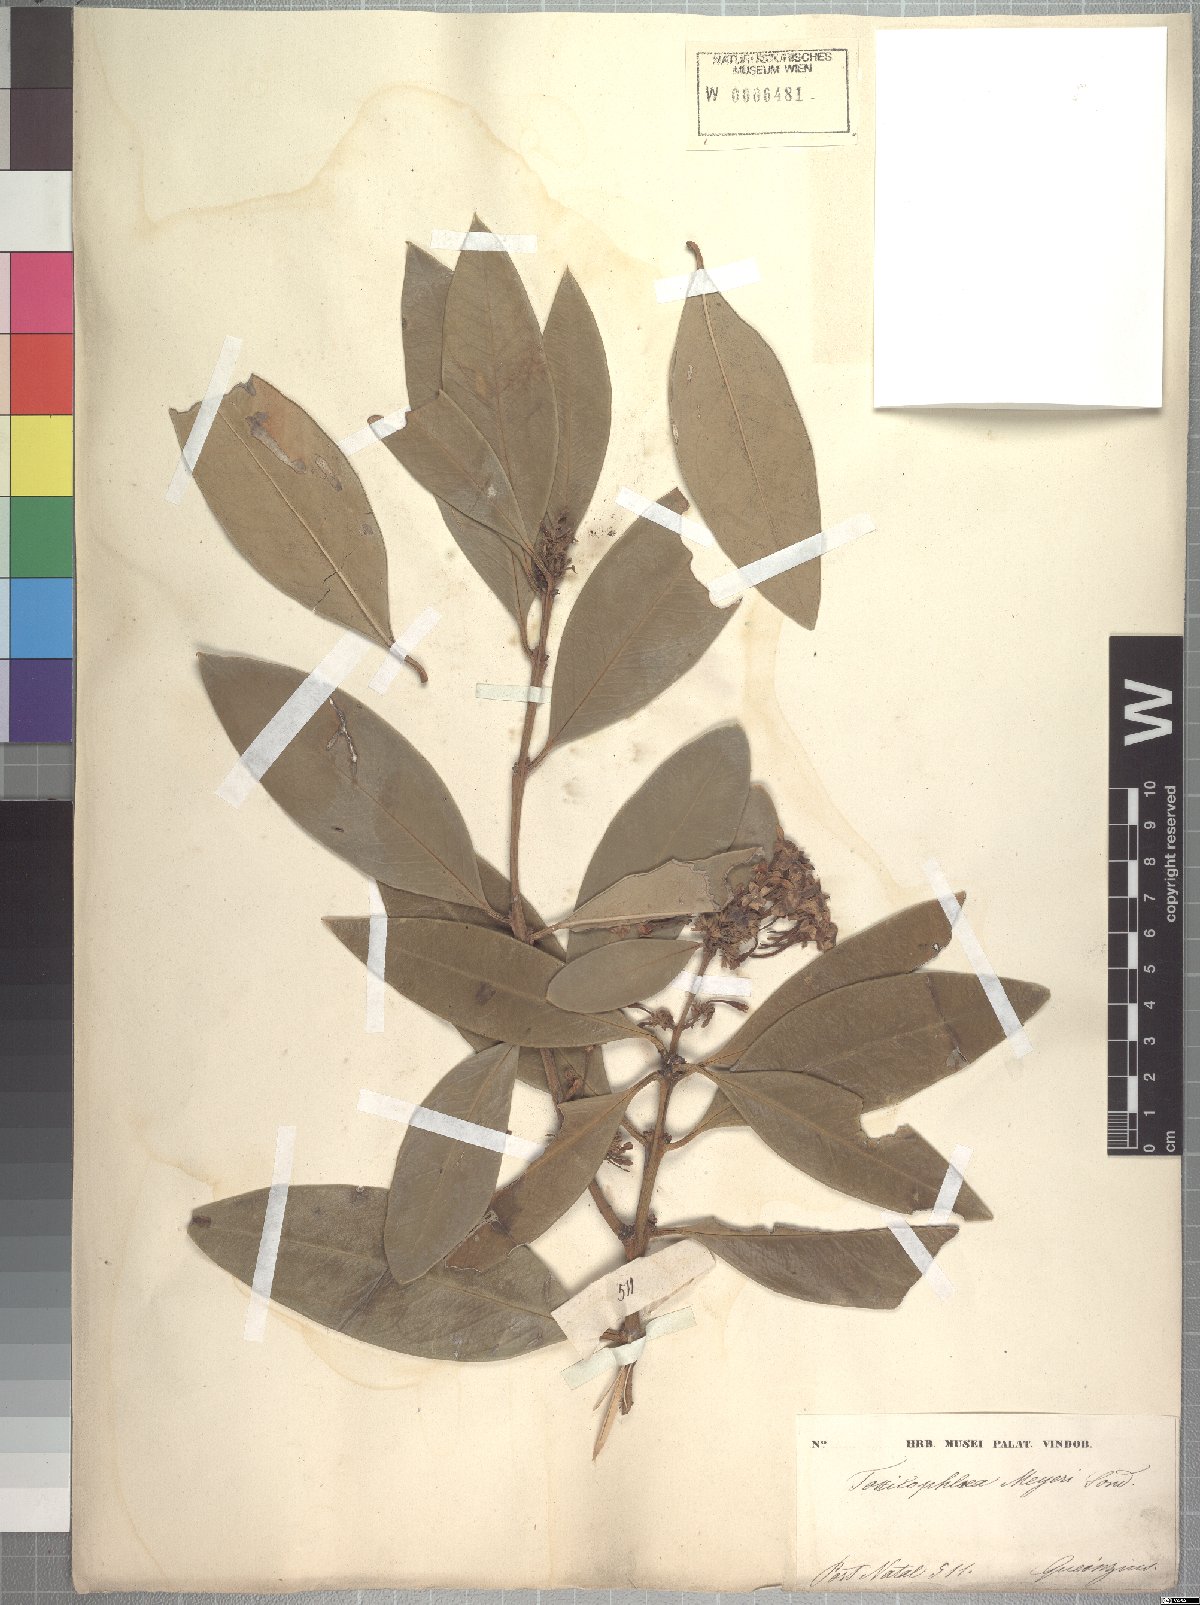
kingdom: Plantae
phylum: Tracheophyta
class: Magnoliopsida
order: Gentianales
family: Apocynaceae
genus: Acokanthera
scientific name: Acokanthera oblongifolia
